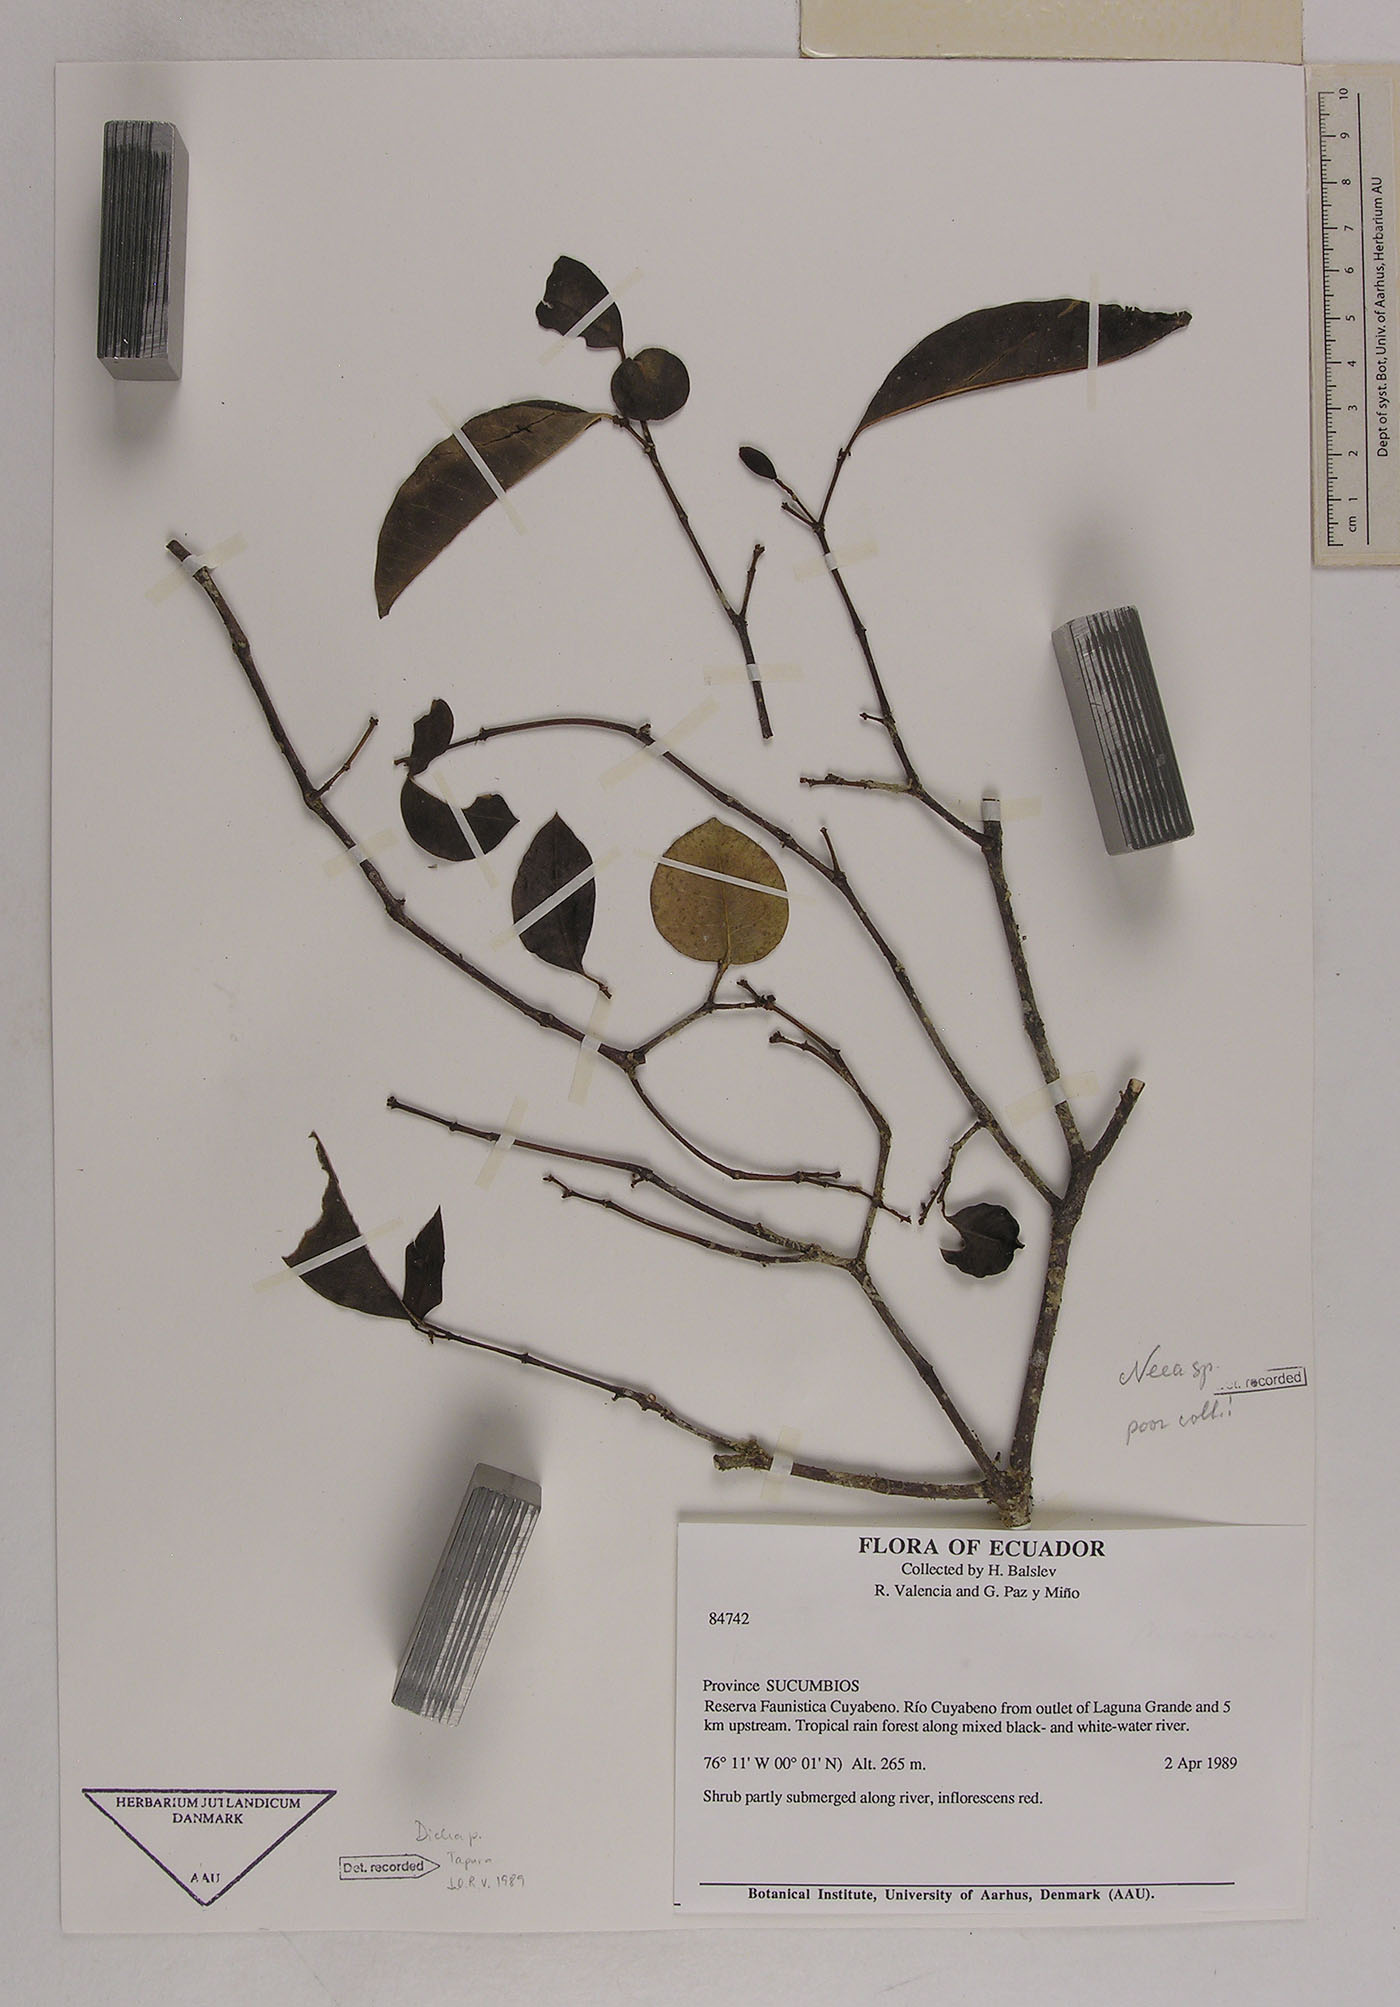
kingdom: Plantae
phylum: Tracheophyta
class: Magnoliopsida
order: Caryophyllales
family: Nyctaginaceae
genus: Neea
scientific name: Neea
